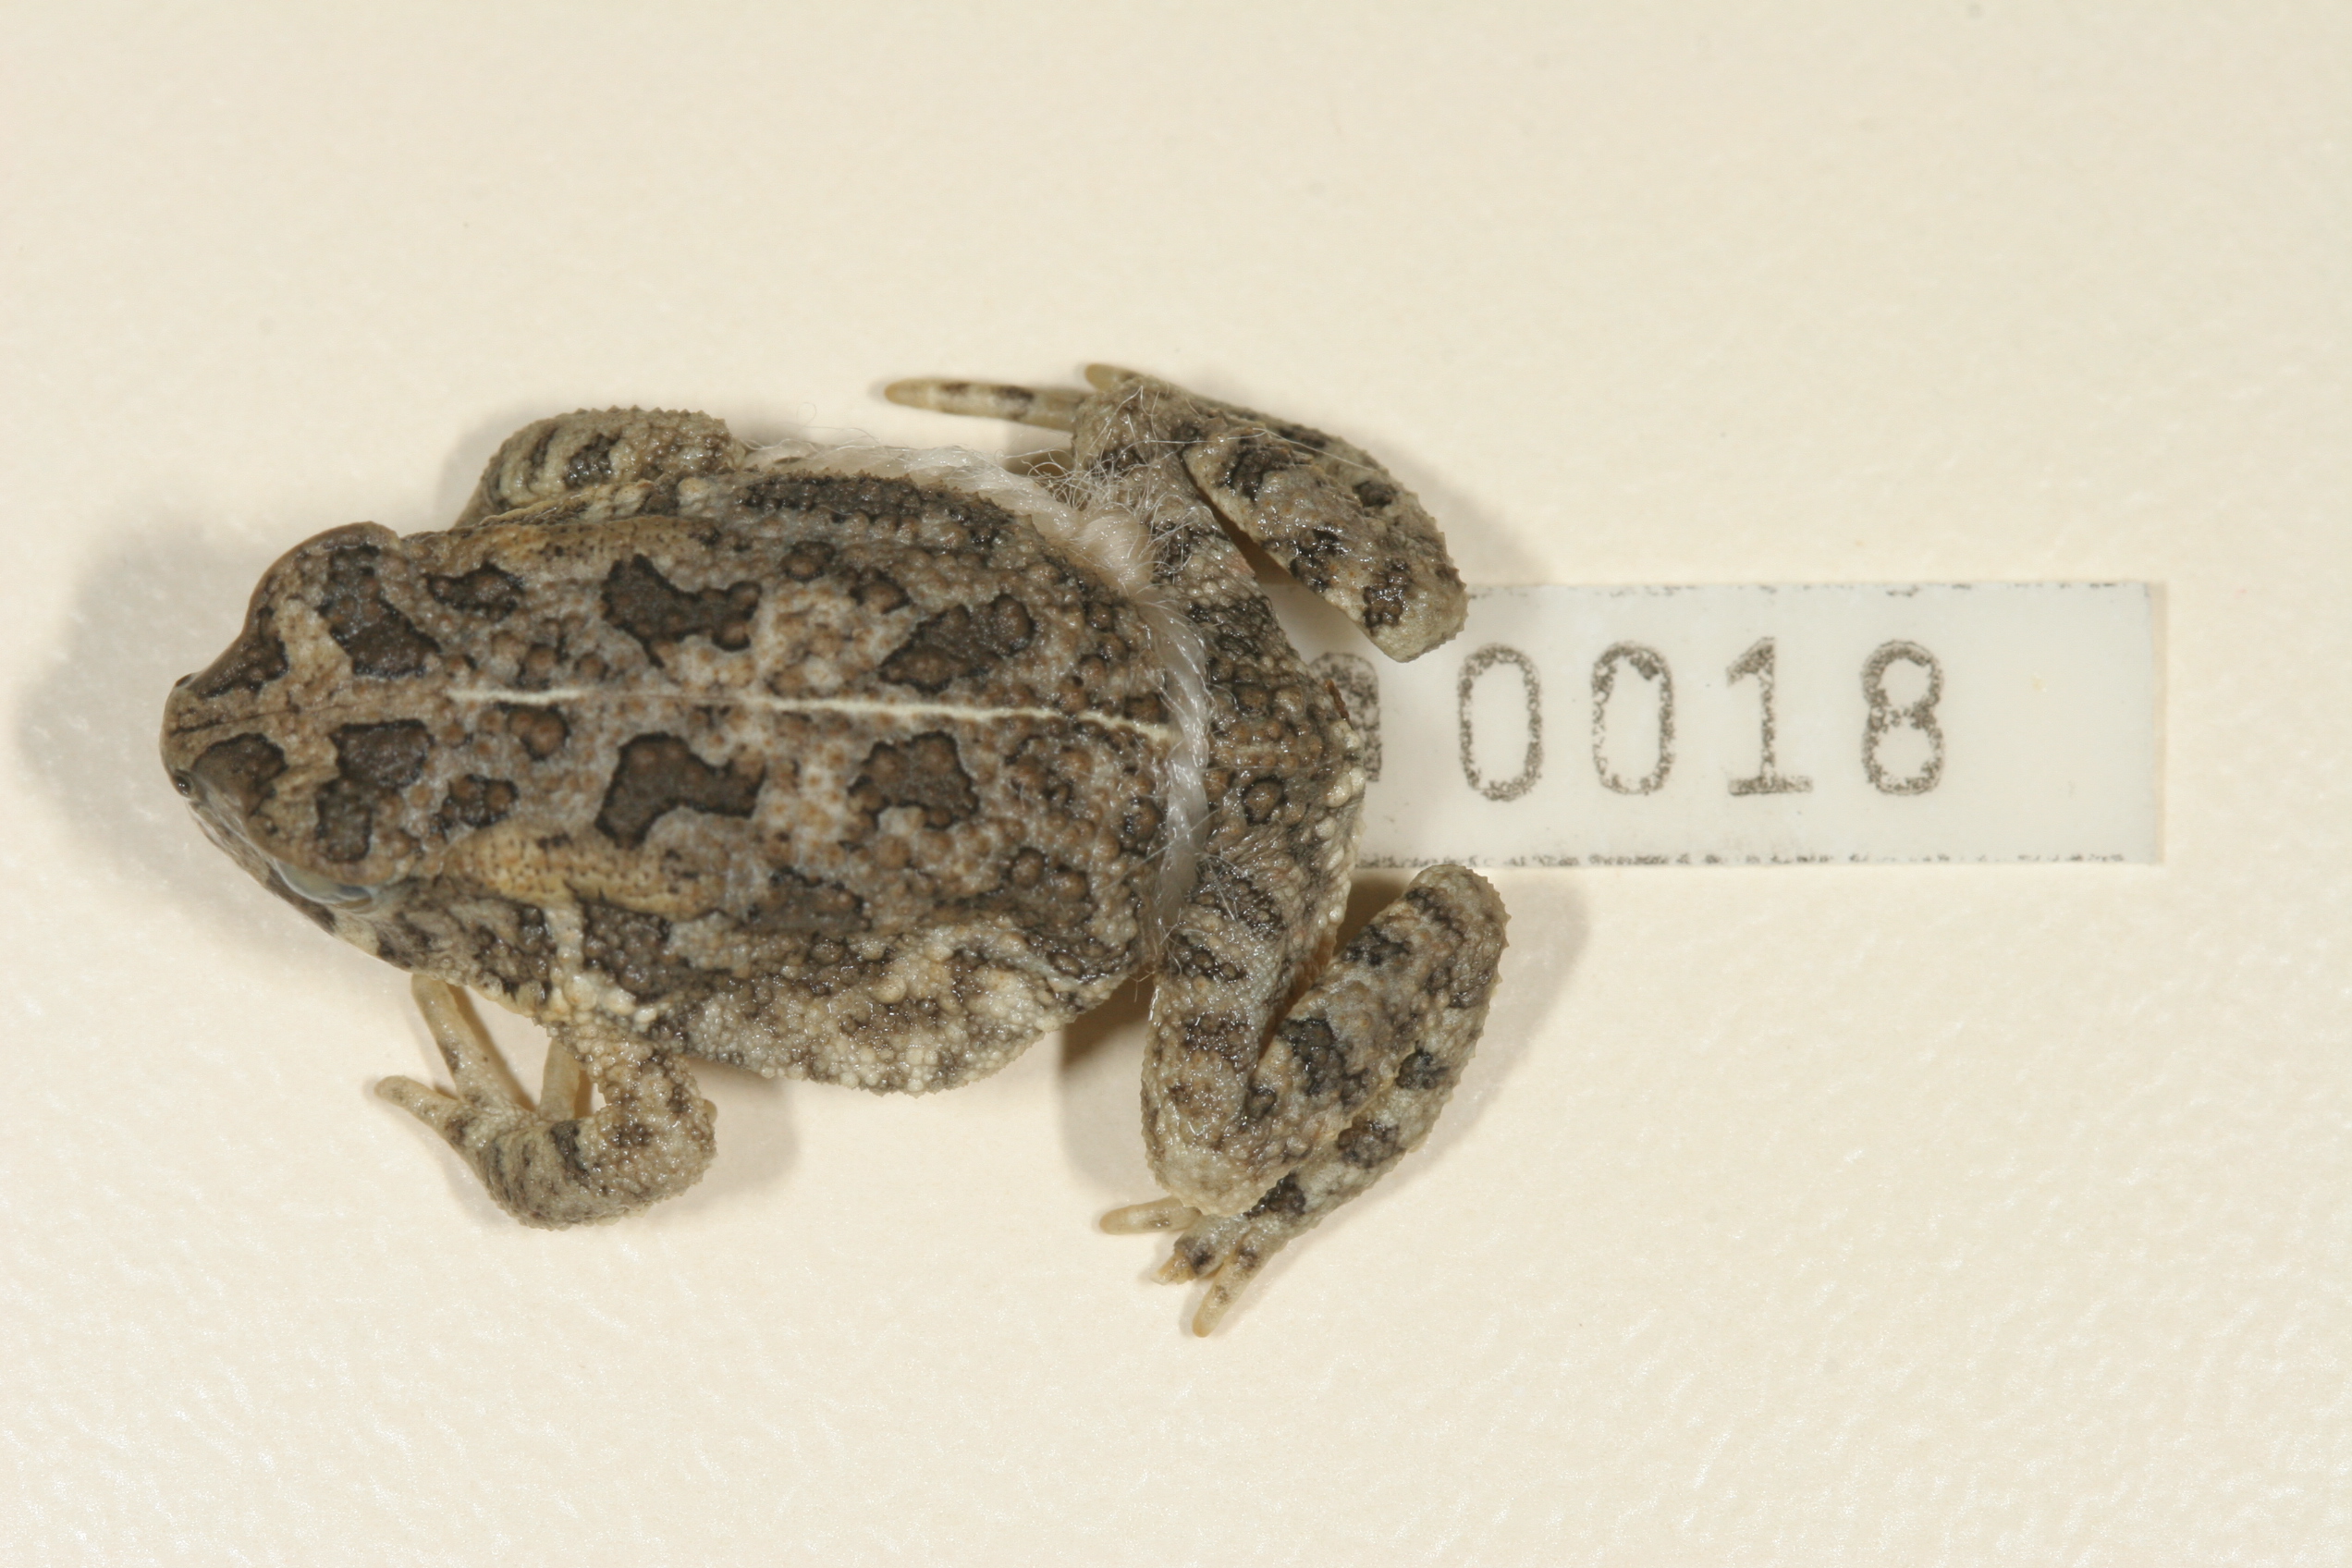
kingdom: Animalia
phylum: Chordata
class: Amphibia
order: Anura
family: Bufonidae
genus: Sclerophrys
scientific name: Sclerophrys gutturalis
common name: African common toad
